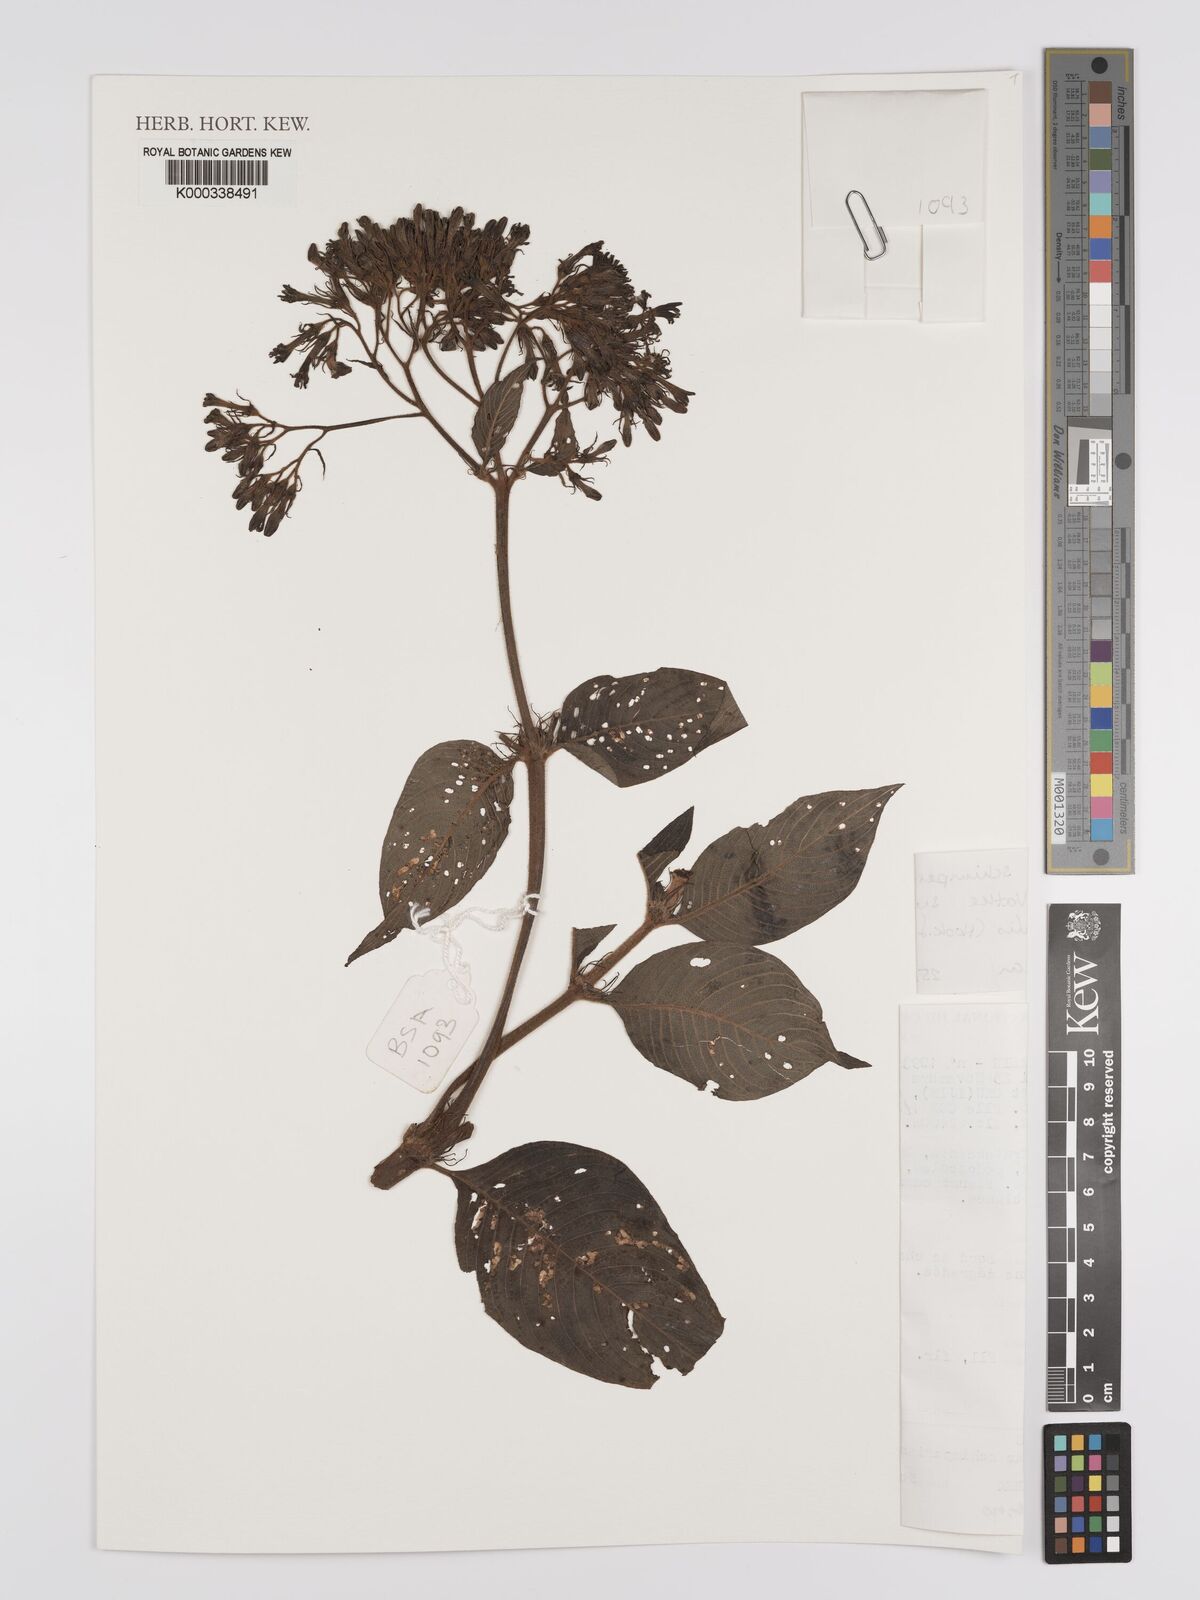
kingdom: Plantae
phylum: Tracheophyta
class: Magnoliopsida
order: Gentianales
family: Rubiaceae
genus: Phyllopentas
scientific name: Phyllopentas schimperi
